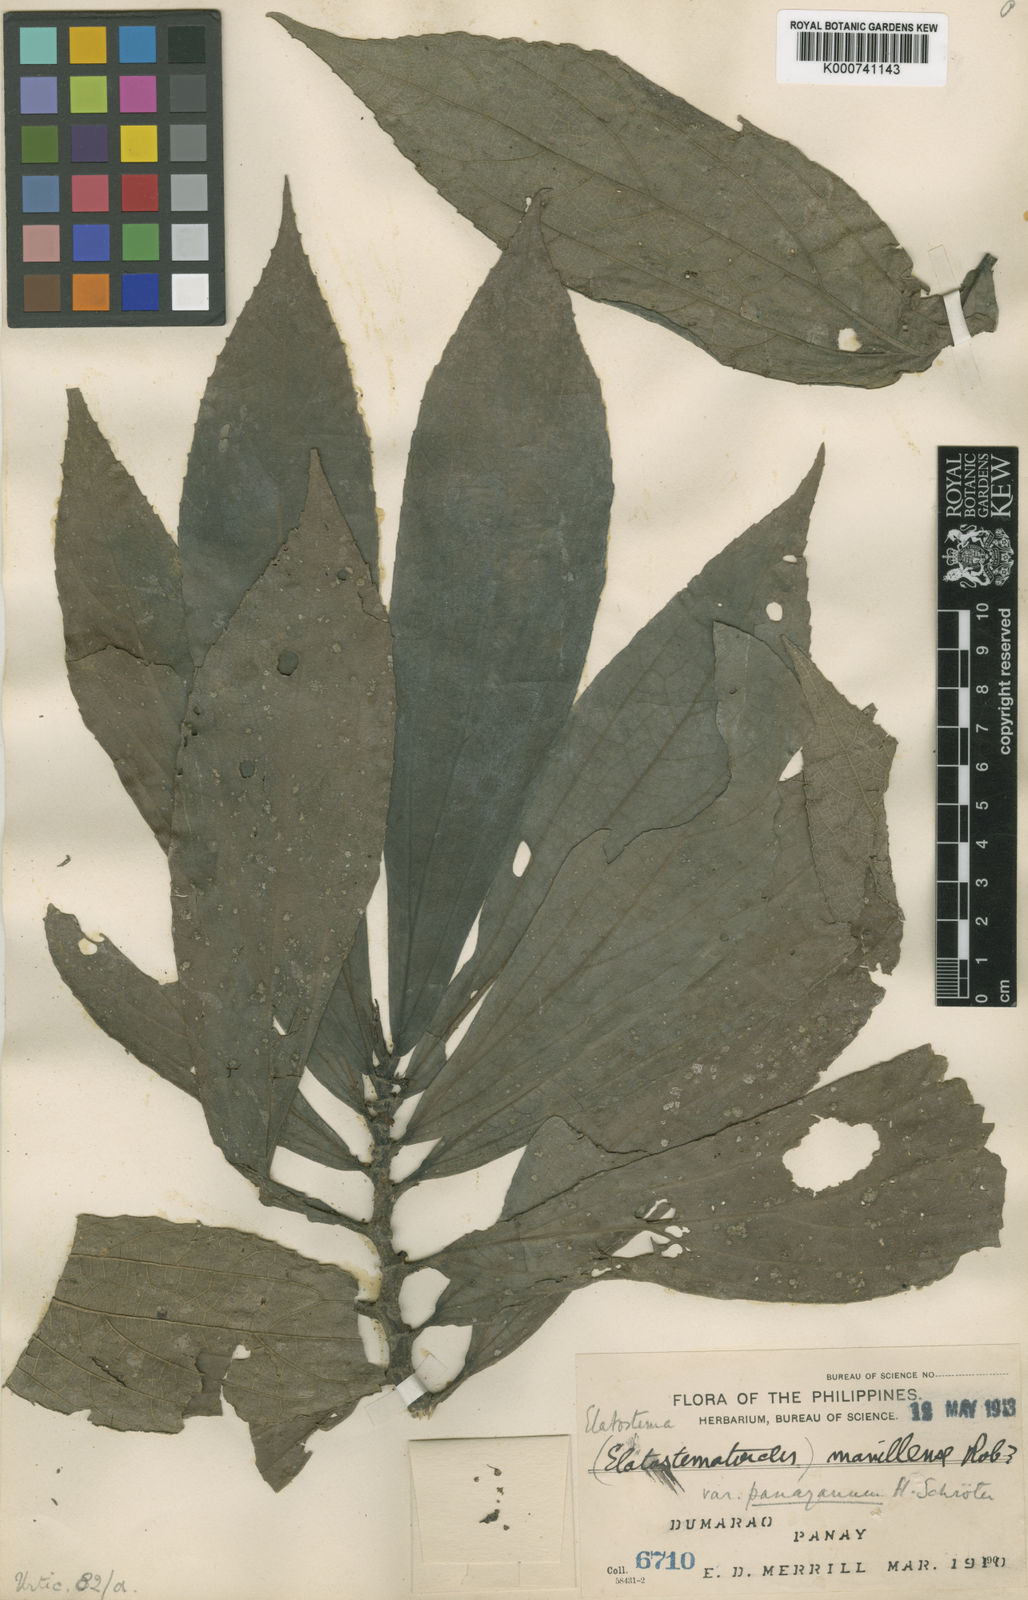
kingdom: Plantae
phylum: Tracheophyta
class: Magnoliopsida
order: Rosales
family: Urticaceae
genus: Elatostematoides
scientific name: Elatostematoides manillense
